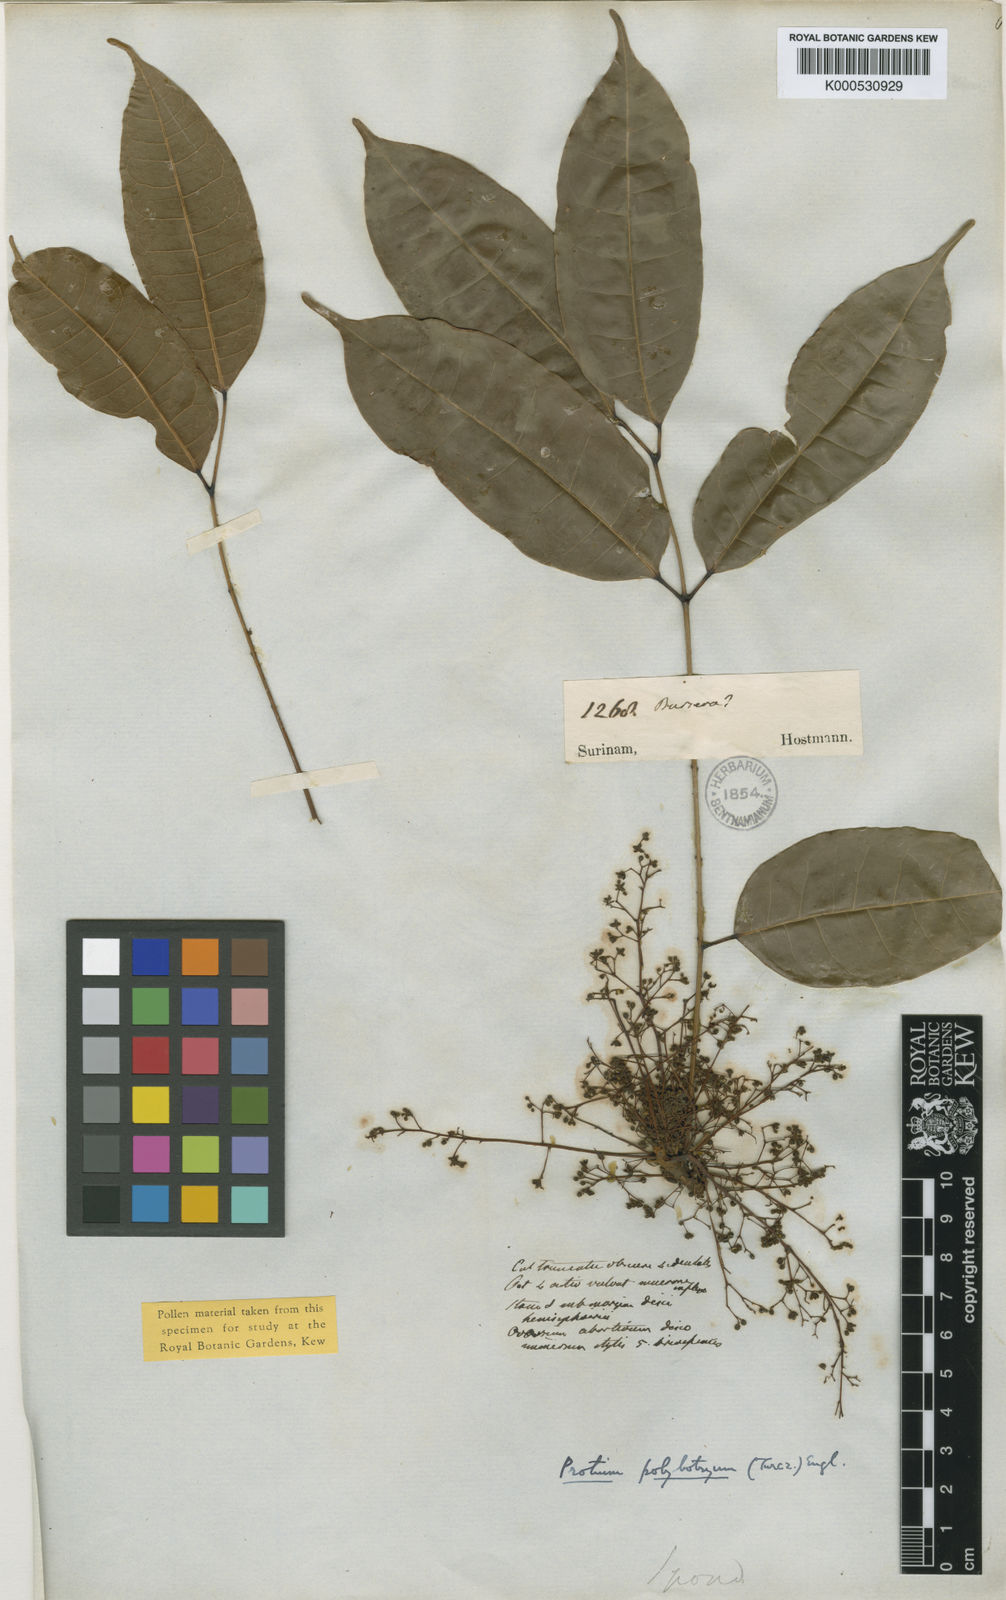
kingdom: Plantae
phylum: Tracheophyta
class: Magnoliopsida
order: Sapindales
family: Burseraceae
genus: Protium
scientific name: Protium polybotryum
